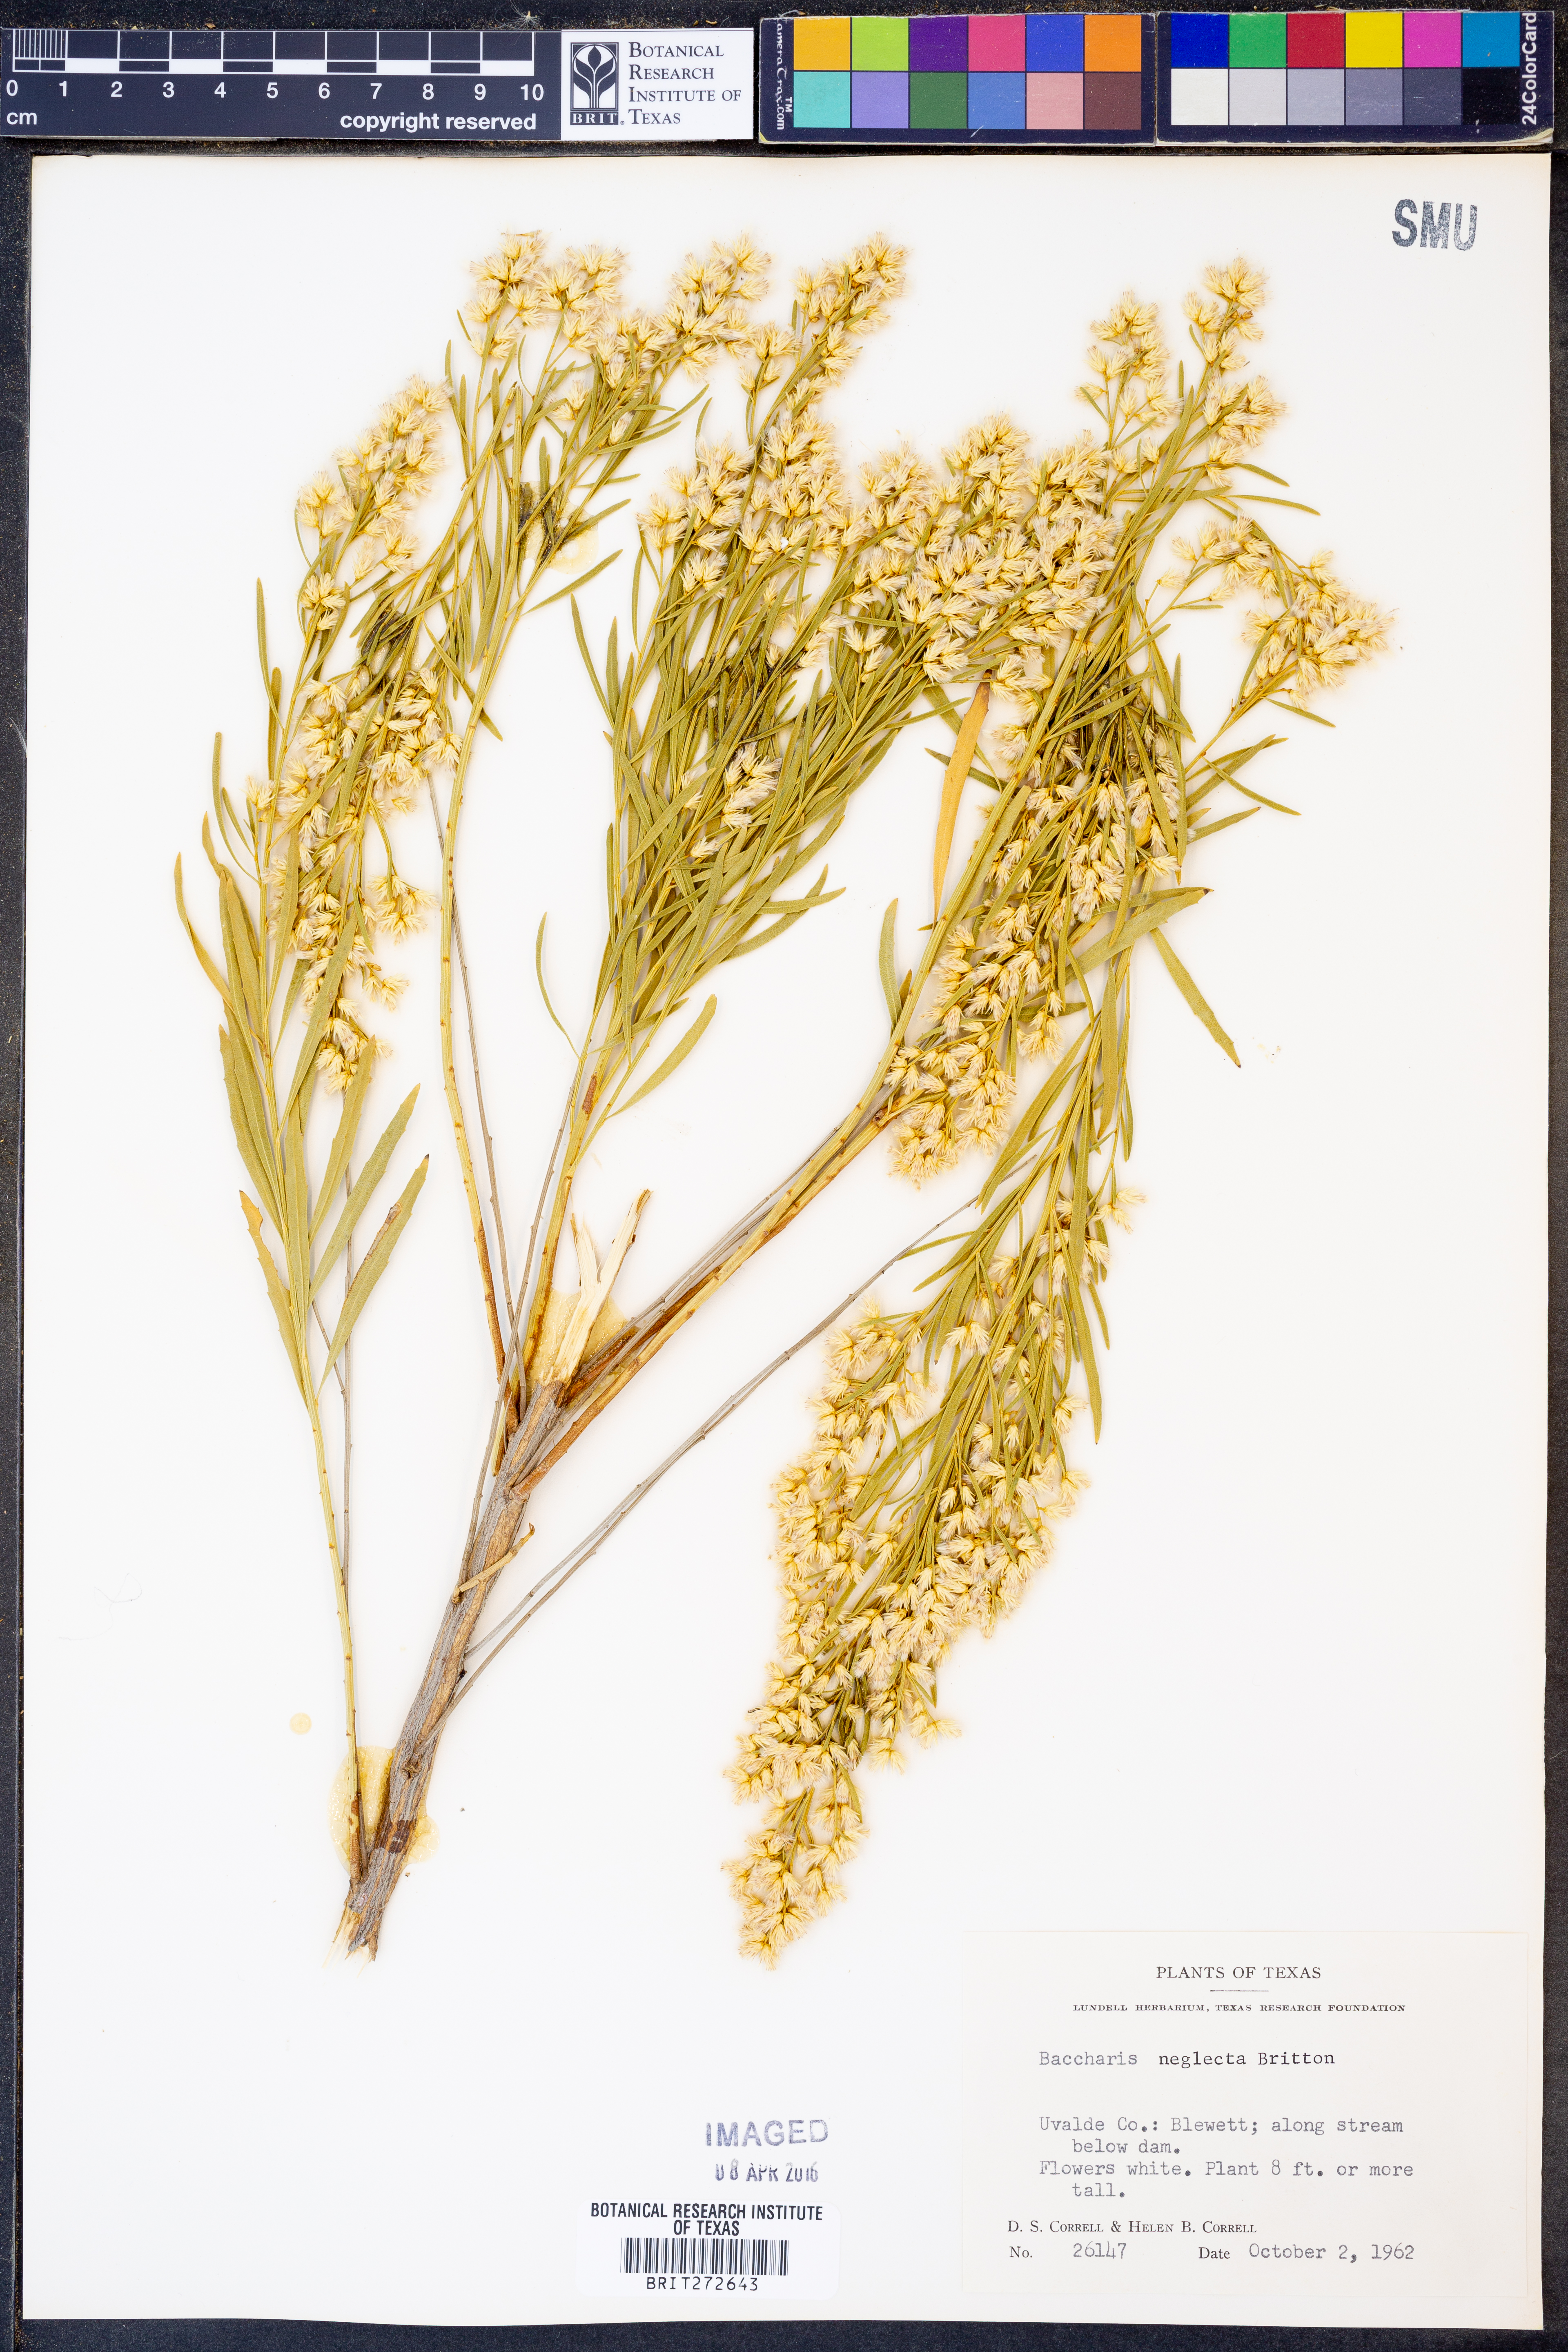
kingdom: Plantae
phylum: Tracheophyta
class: Magnoliopsida
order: Asterales
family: Asteraceae
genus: Baccharis
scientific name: Baccharis neglecta
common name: Roosevelt-weed
